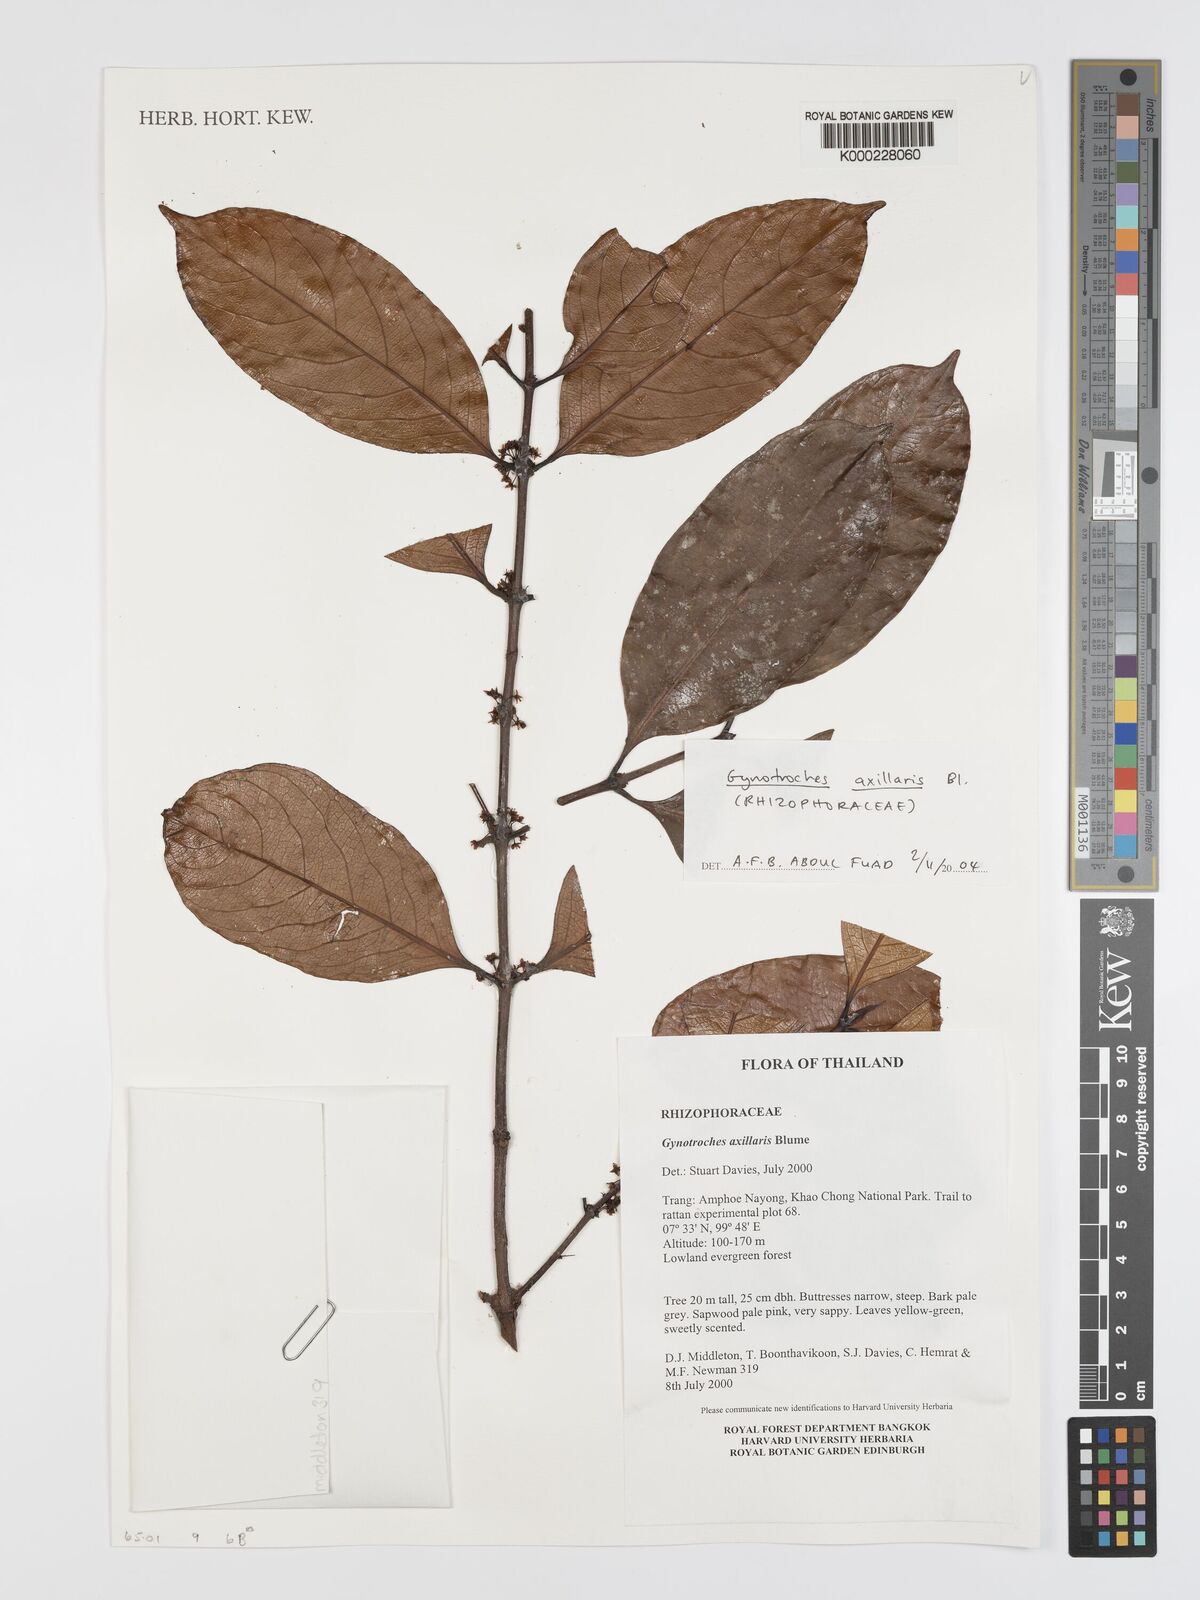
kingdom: Plantae
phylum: Tracheophyta
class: Magnoliopsida
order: Malpighiales
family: Rhizophoraceae
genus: Gynotroches
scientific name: Gynotroches axillaris
